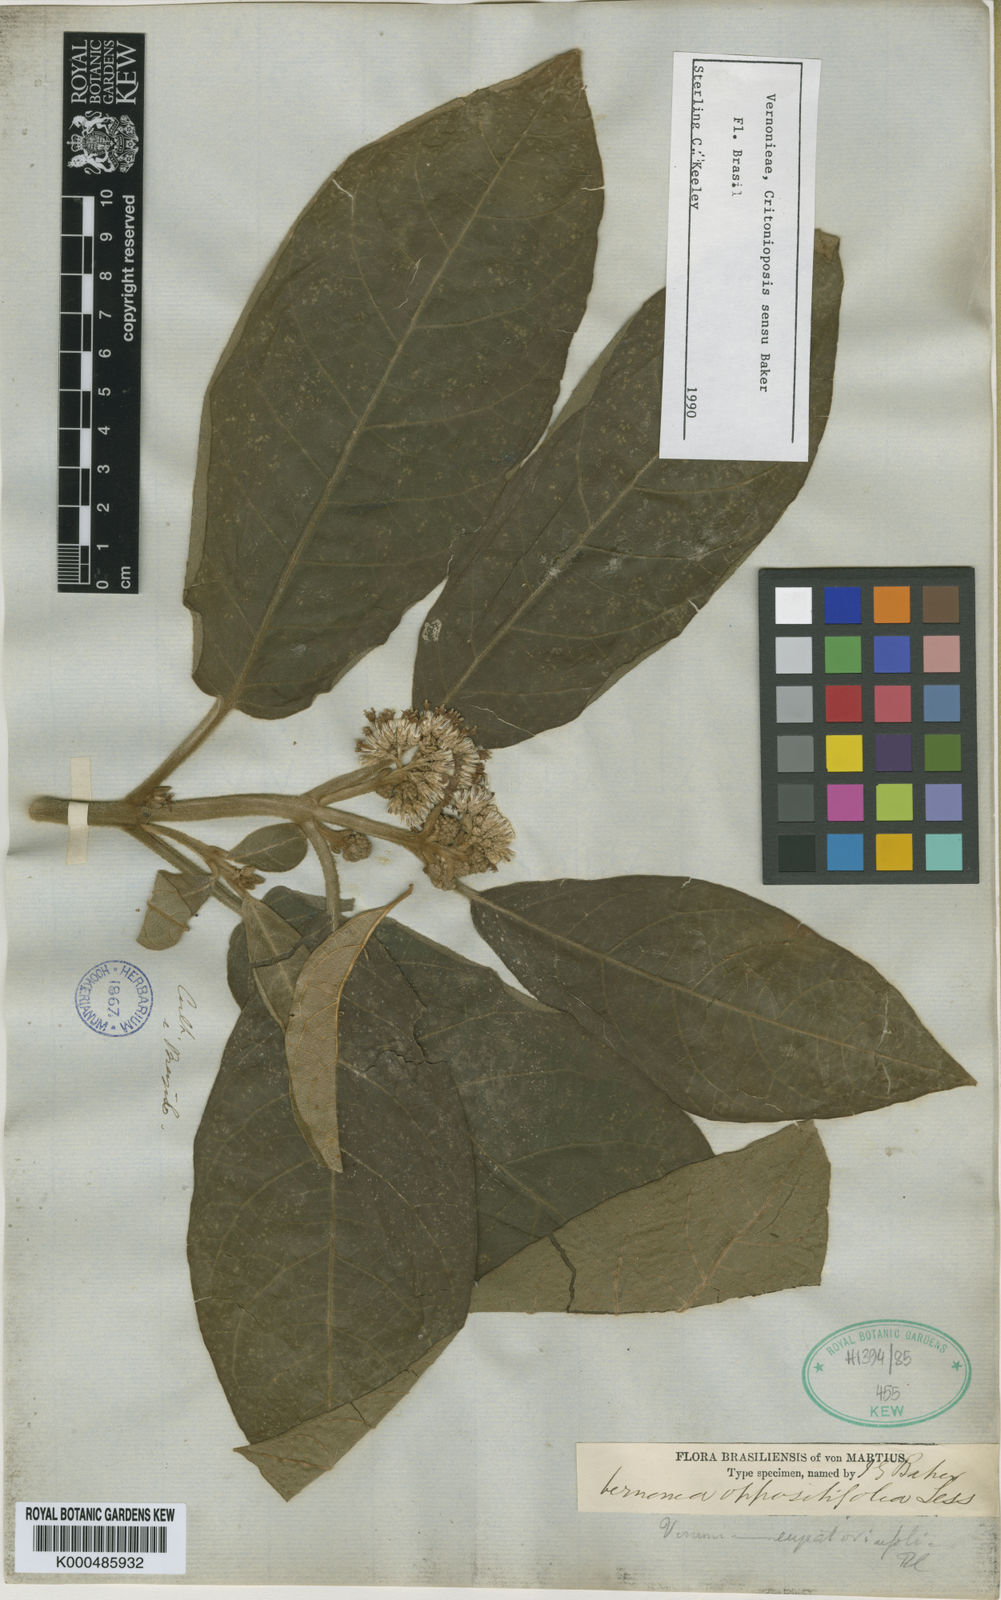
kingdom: Plantae
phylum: Tracheophyta
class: Magnoliopsida
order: Asterales
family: Asteraceae
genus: Critoniopsis
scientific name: Critoniopsis stellata
